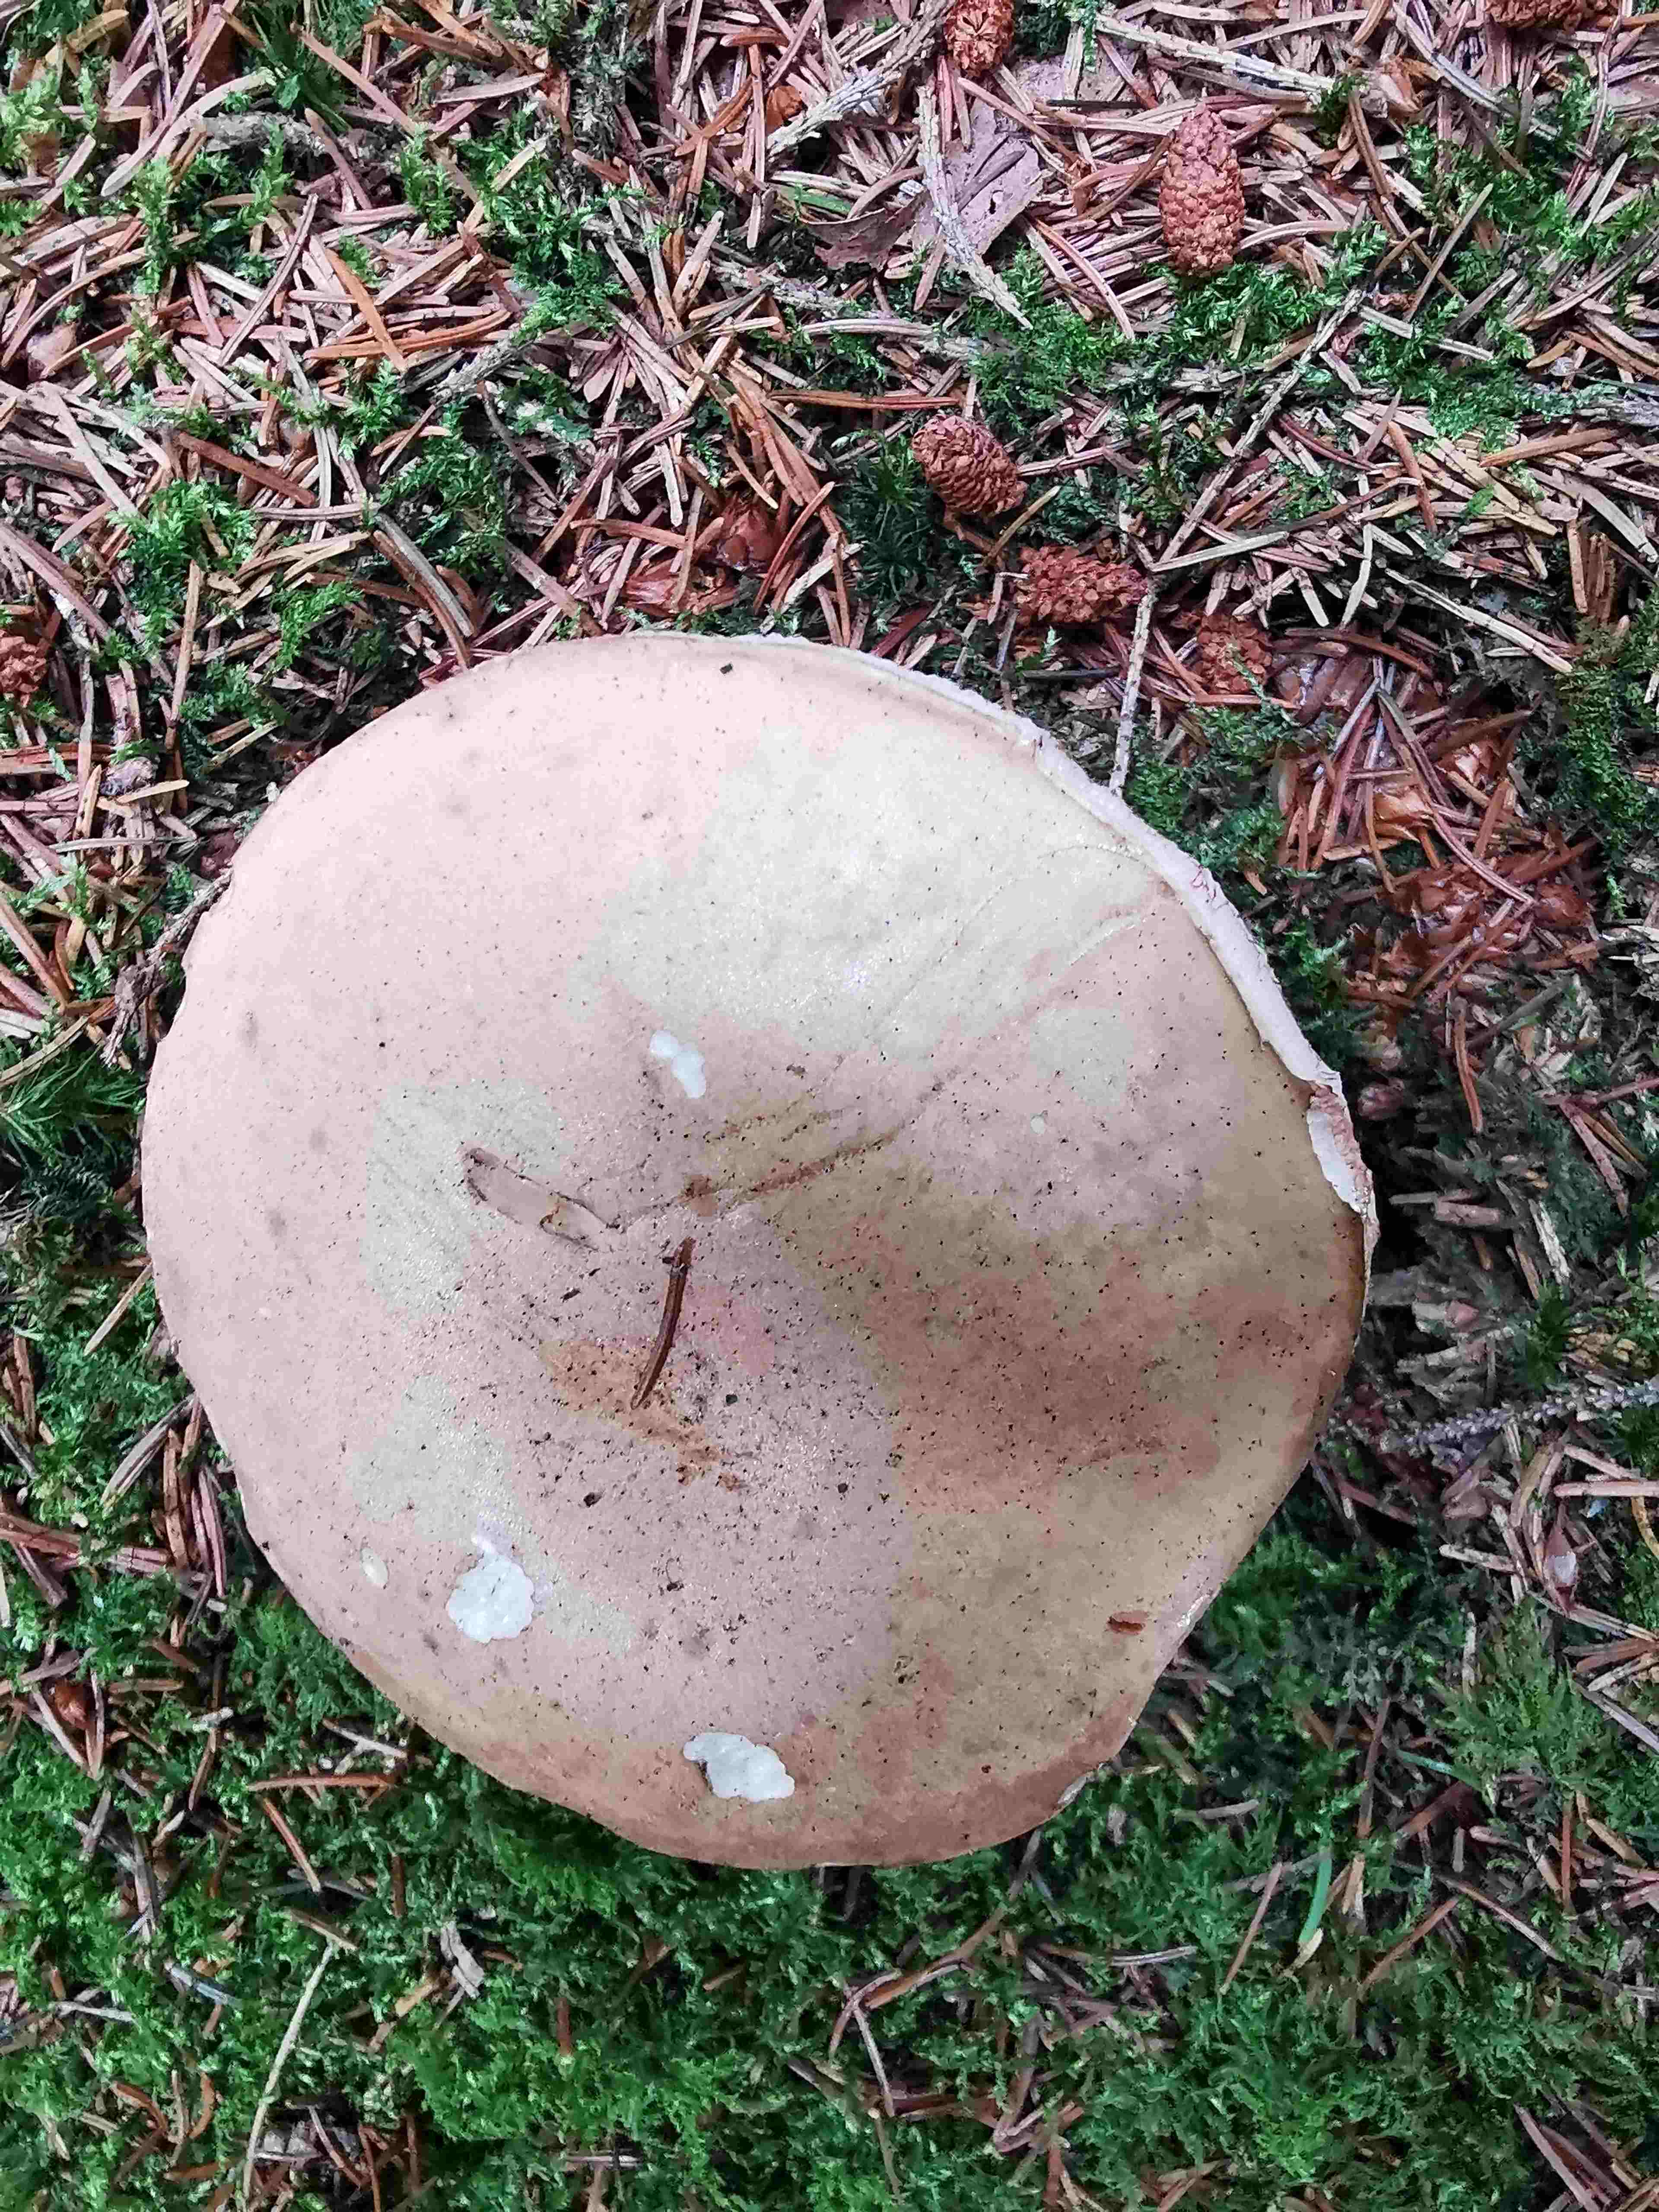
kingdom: Fungi
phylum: Basidiomycota
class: Agaricomycetes
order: Boletales
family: Boletaceae
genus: Tylopilus
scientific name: Tylopilus felleus
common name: galderørhat
